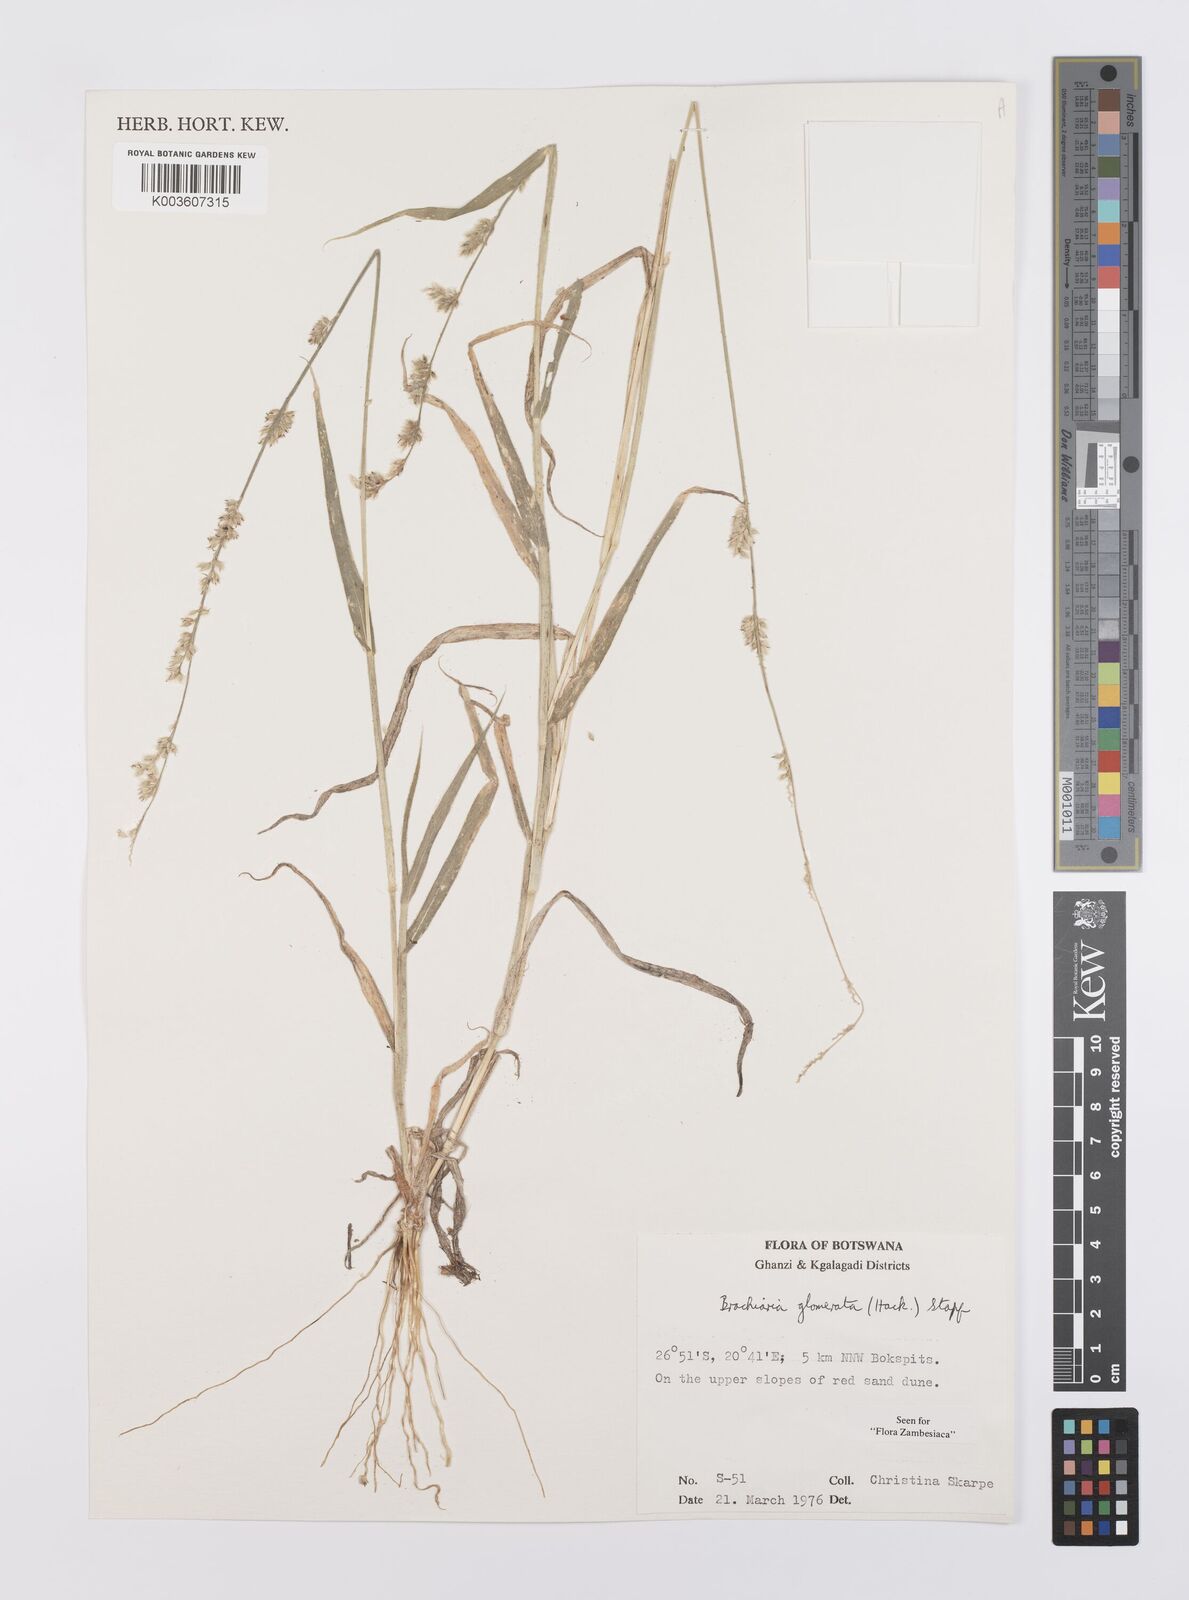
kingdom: Plantae
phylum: Tracheophyta
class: Liliopsida
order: Poales
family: Poaceae
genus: Urochloa
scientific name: Urochloa Brachiaria glomerata
